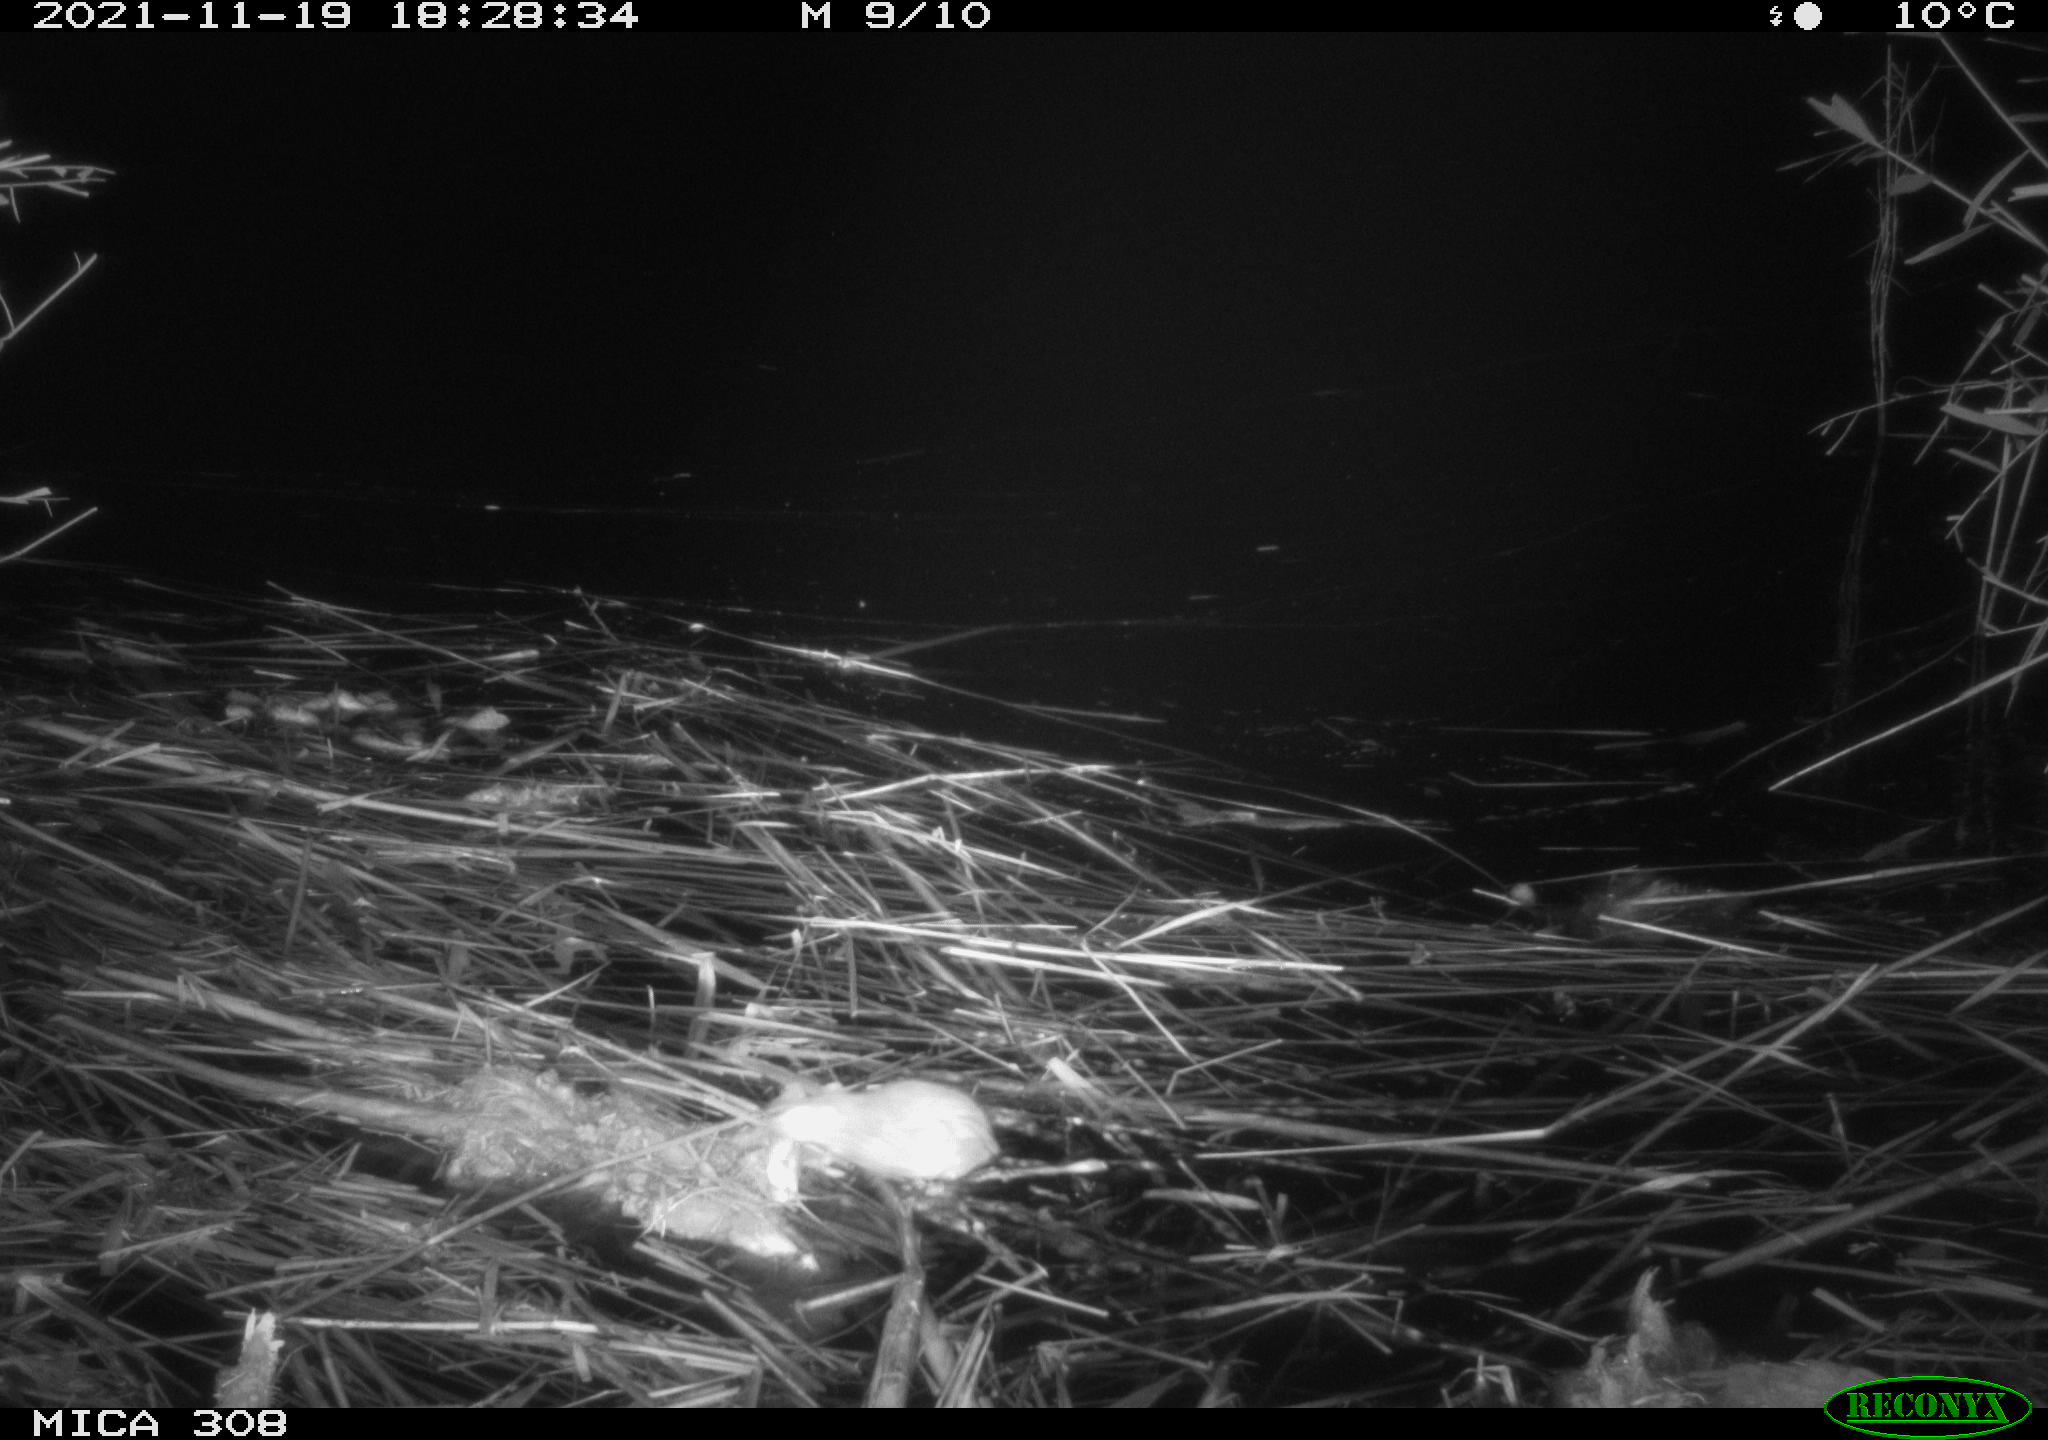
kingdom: Animalia
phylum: Chordata
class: Mammalia
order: Rodentia
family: Muridae
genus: Rattus
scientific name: Rattus norvegicus
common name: Brown rat
